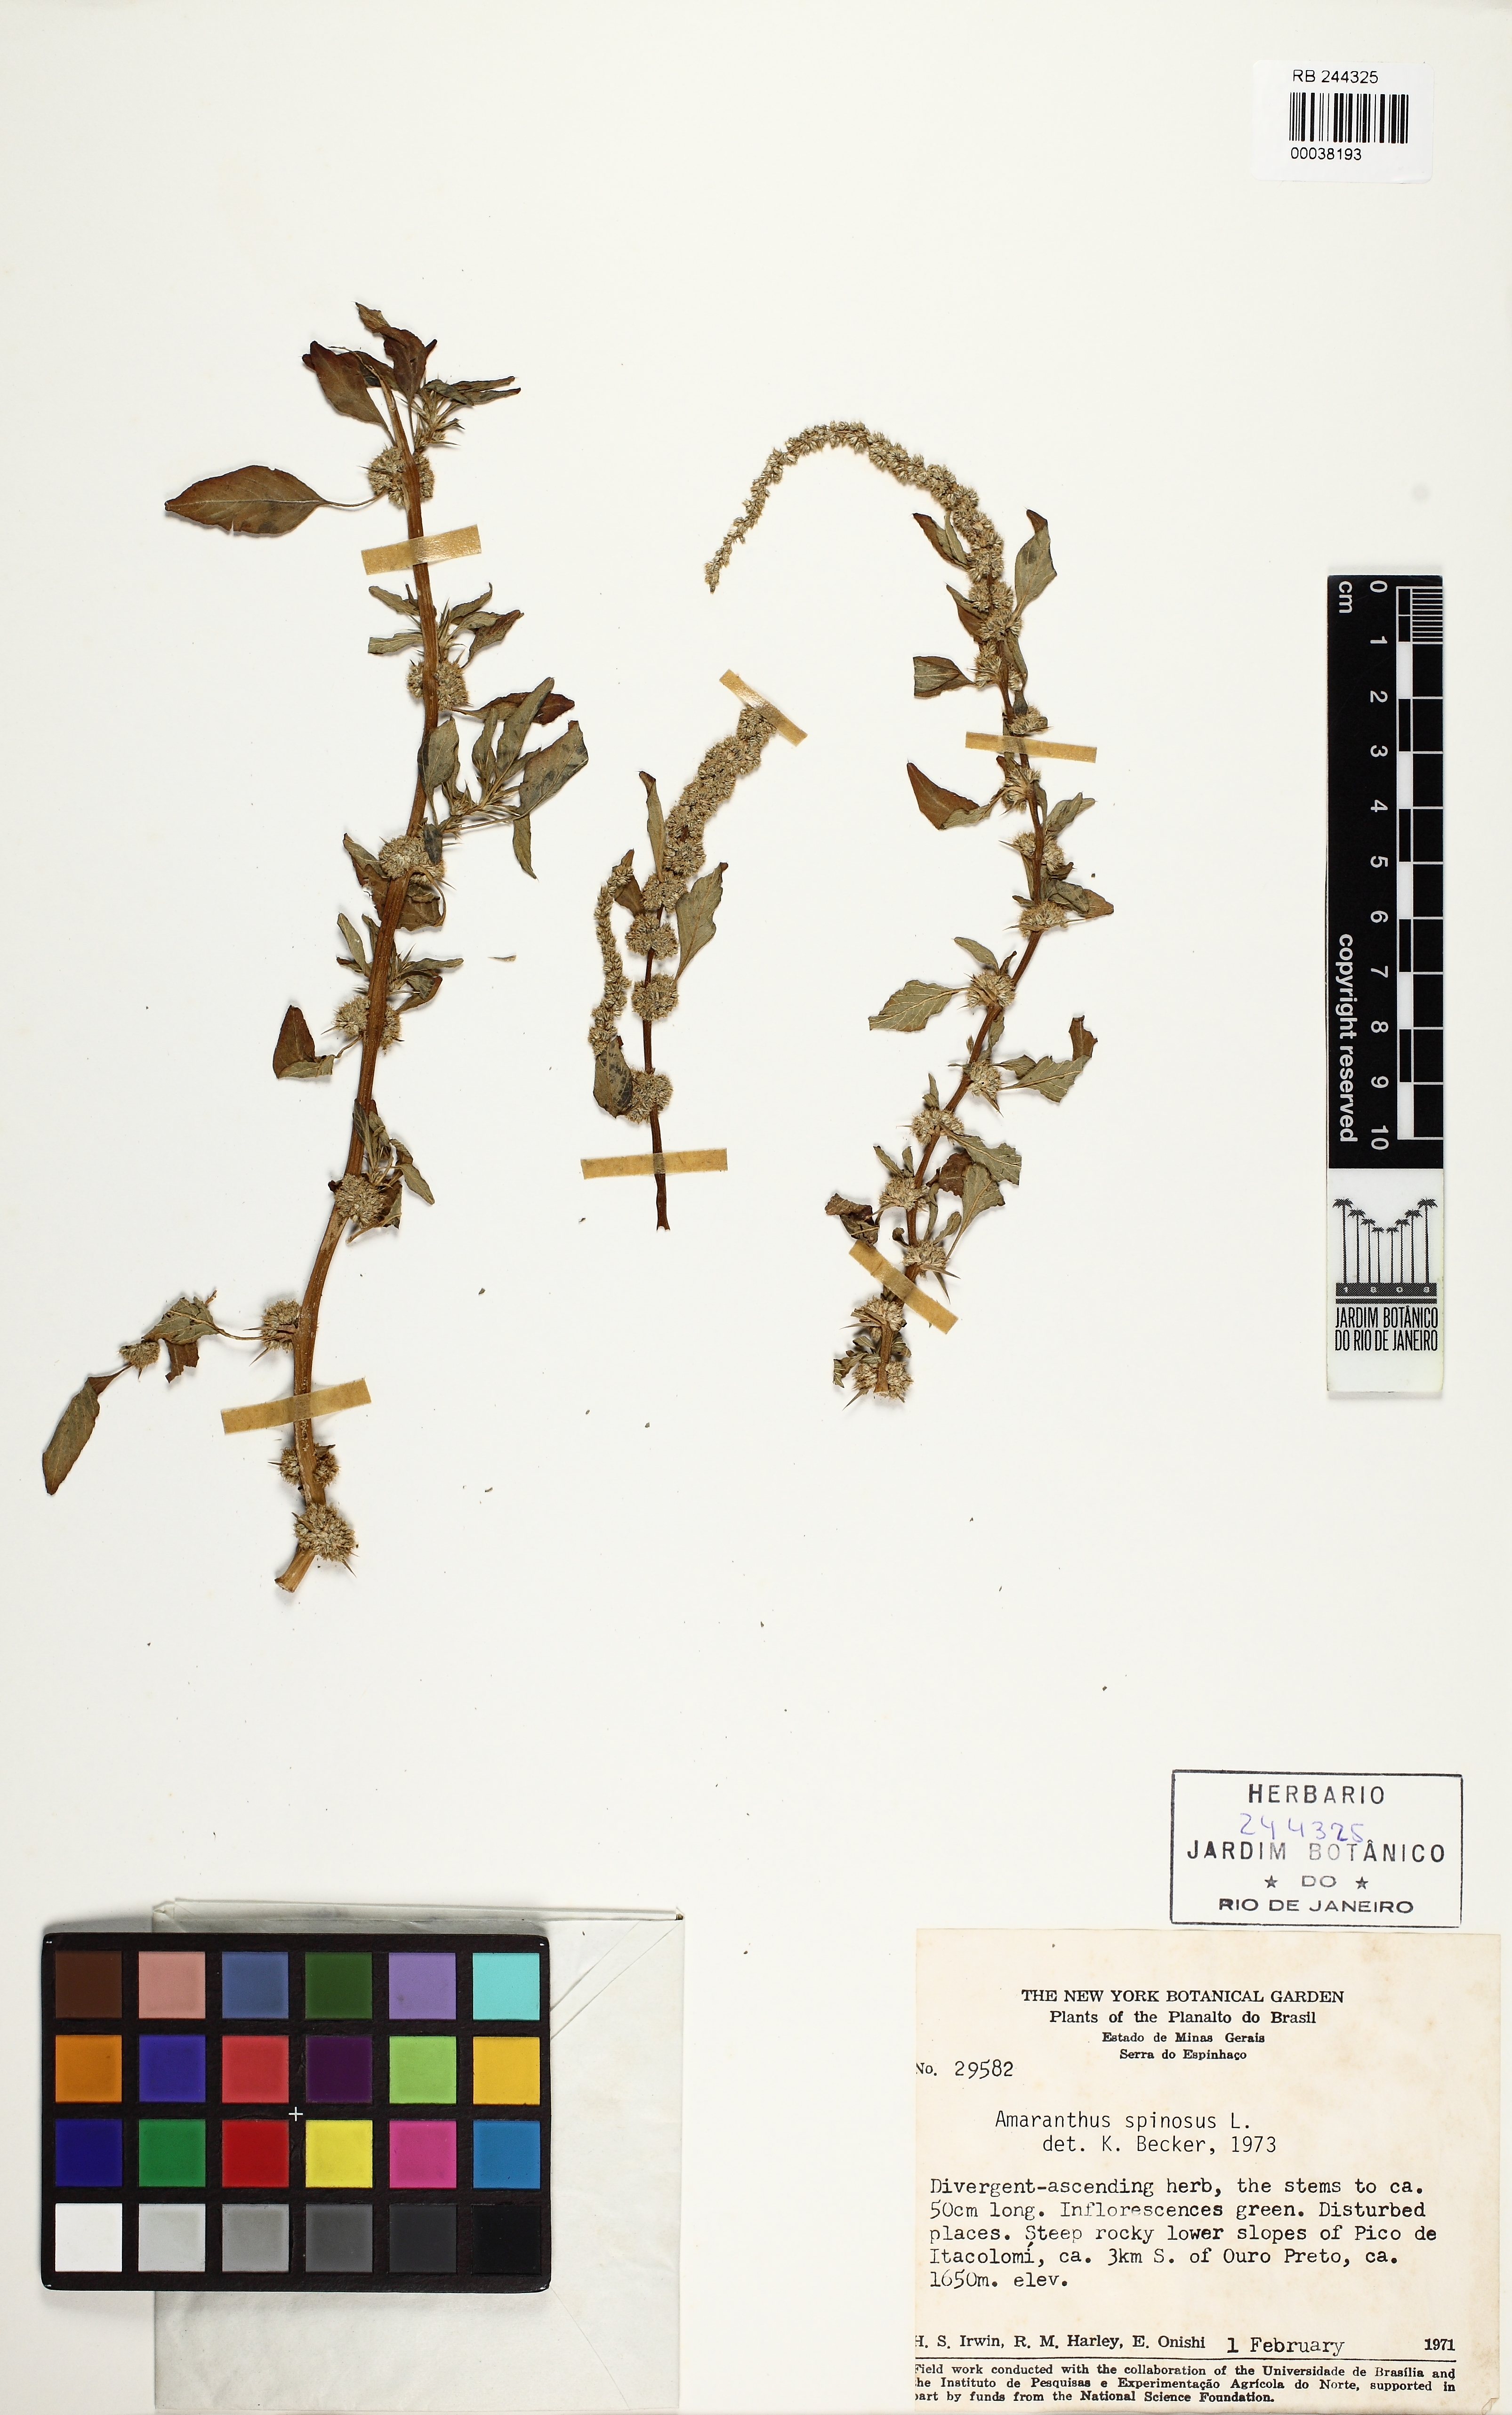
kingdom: Plantae
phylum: Tracheophyta
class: Magnoliopsida
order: Caryophyllales
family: Amaranthaceae
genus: Amaranthus
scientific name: Amaranthus spinosus
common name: Spiny amaranth
